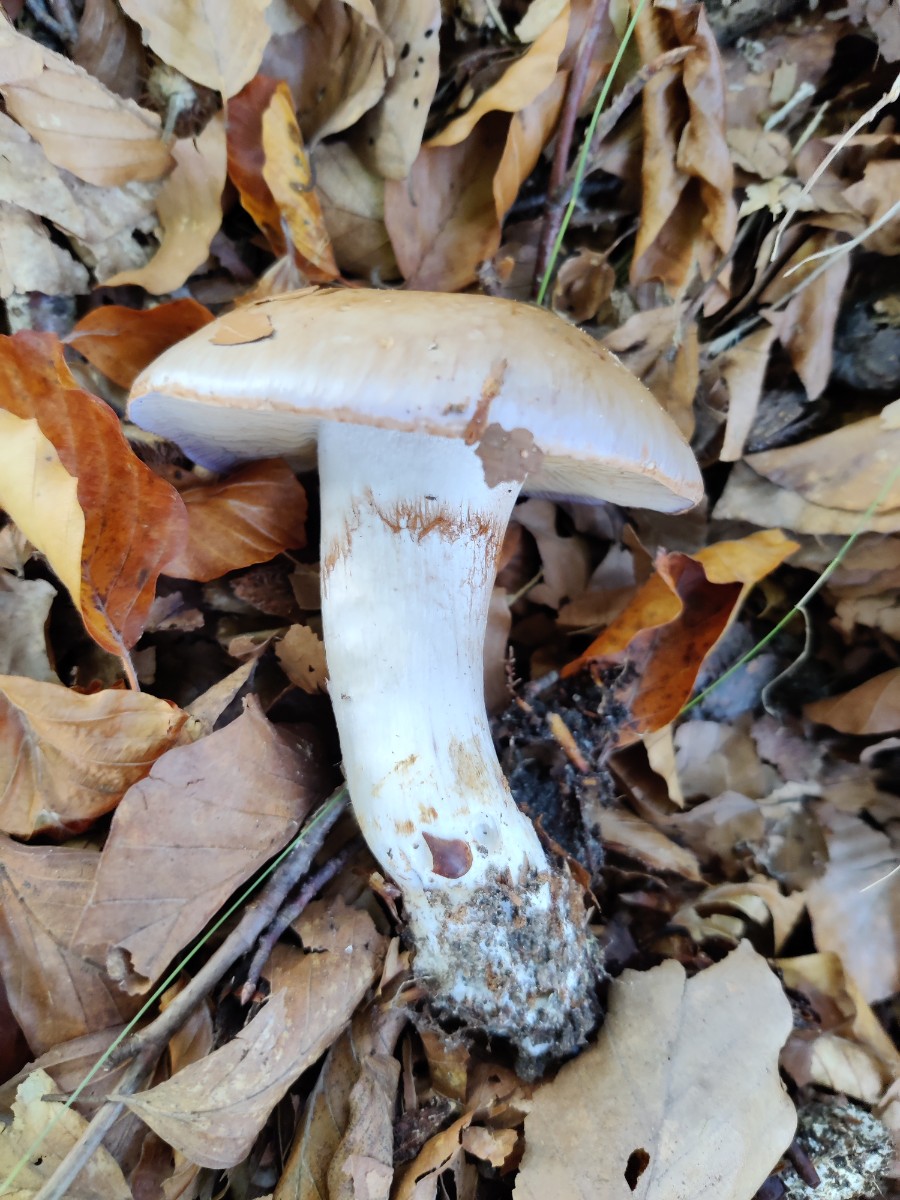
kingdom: Fungi
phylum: Basidiomycota
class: Agaricomycetes
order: Agaricales
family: Cortinariaceae
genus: Cortinarius
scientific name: Cortinarius largus
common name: violetrandet slørhat
